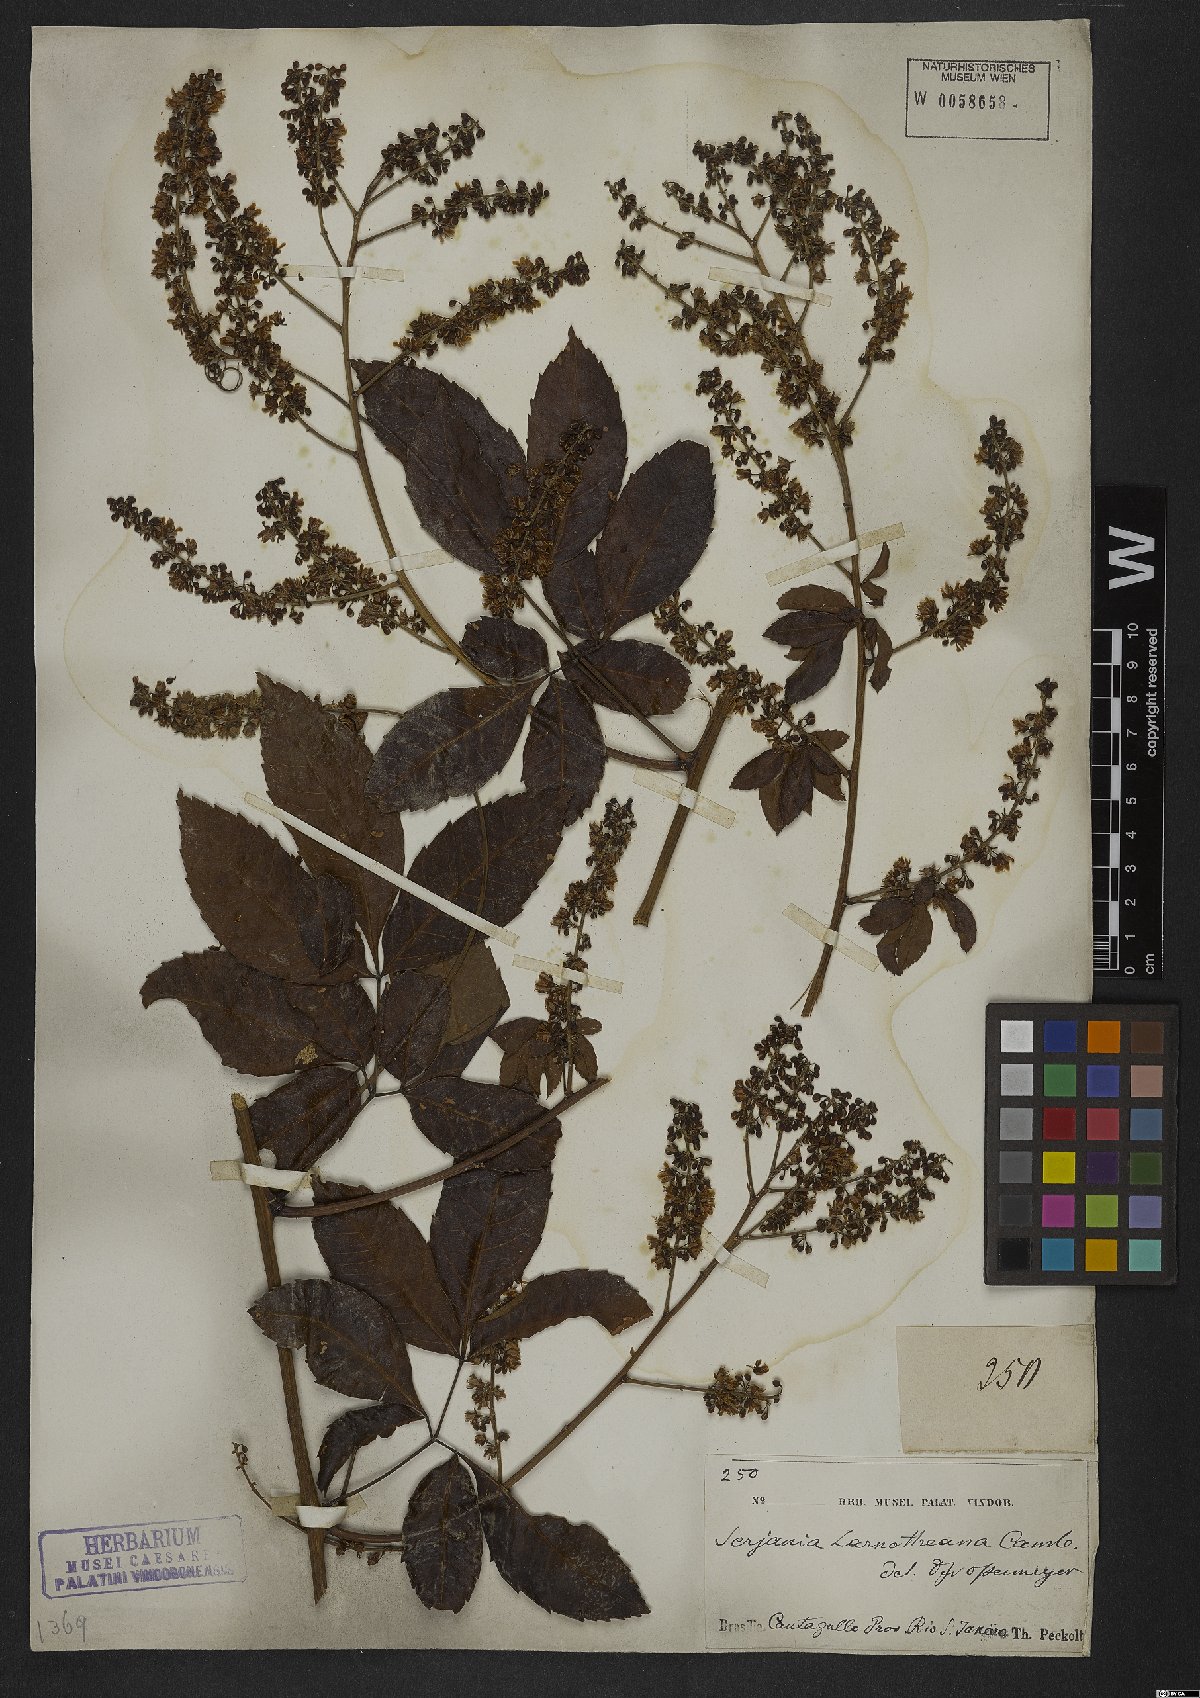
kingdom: Plantae
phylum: Tracheophyta
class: Magnoliopsida
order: Sapindales
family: Sapindaceae
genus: Serjania
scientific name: Serjania laruotteana
